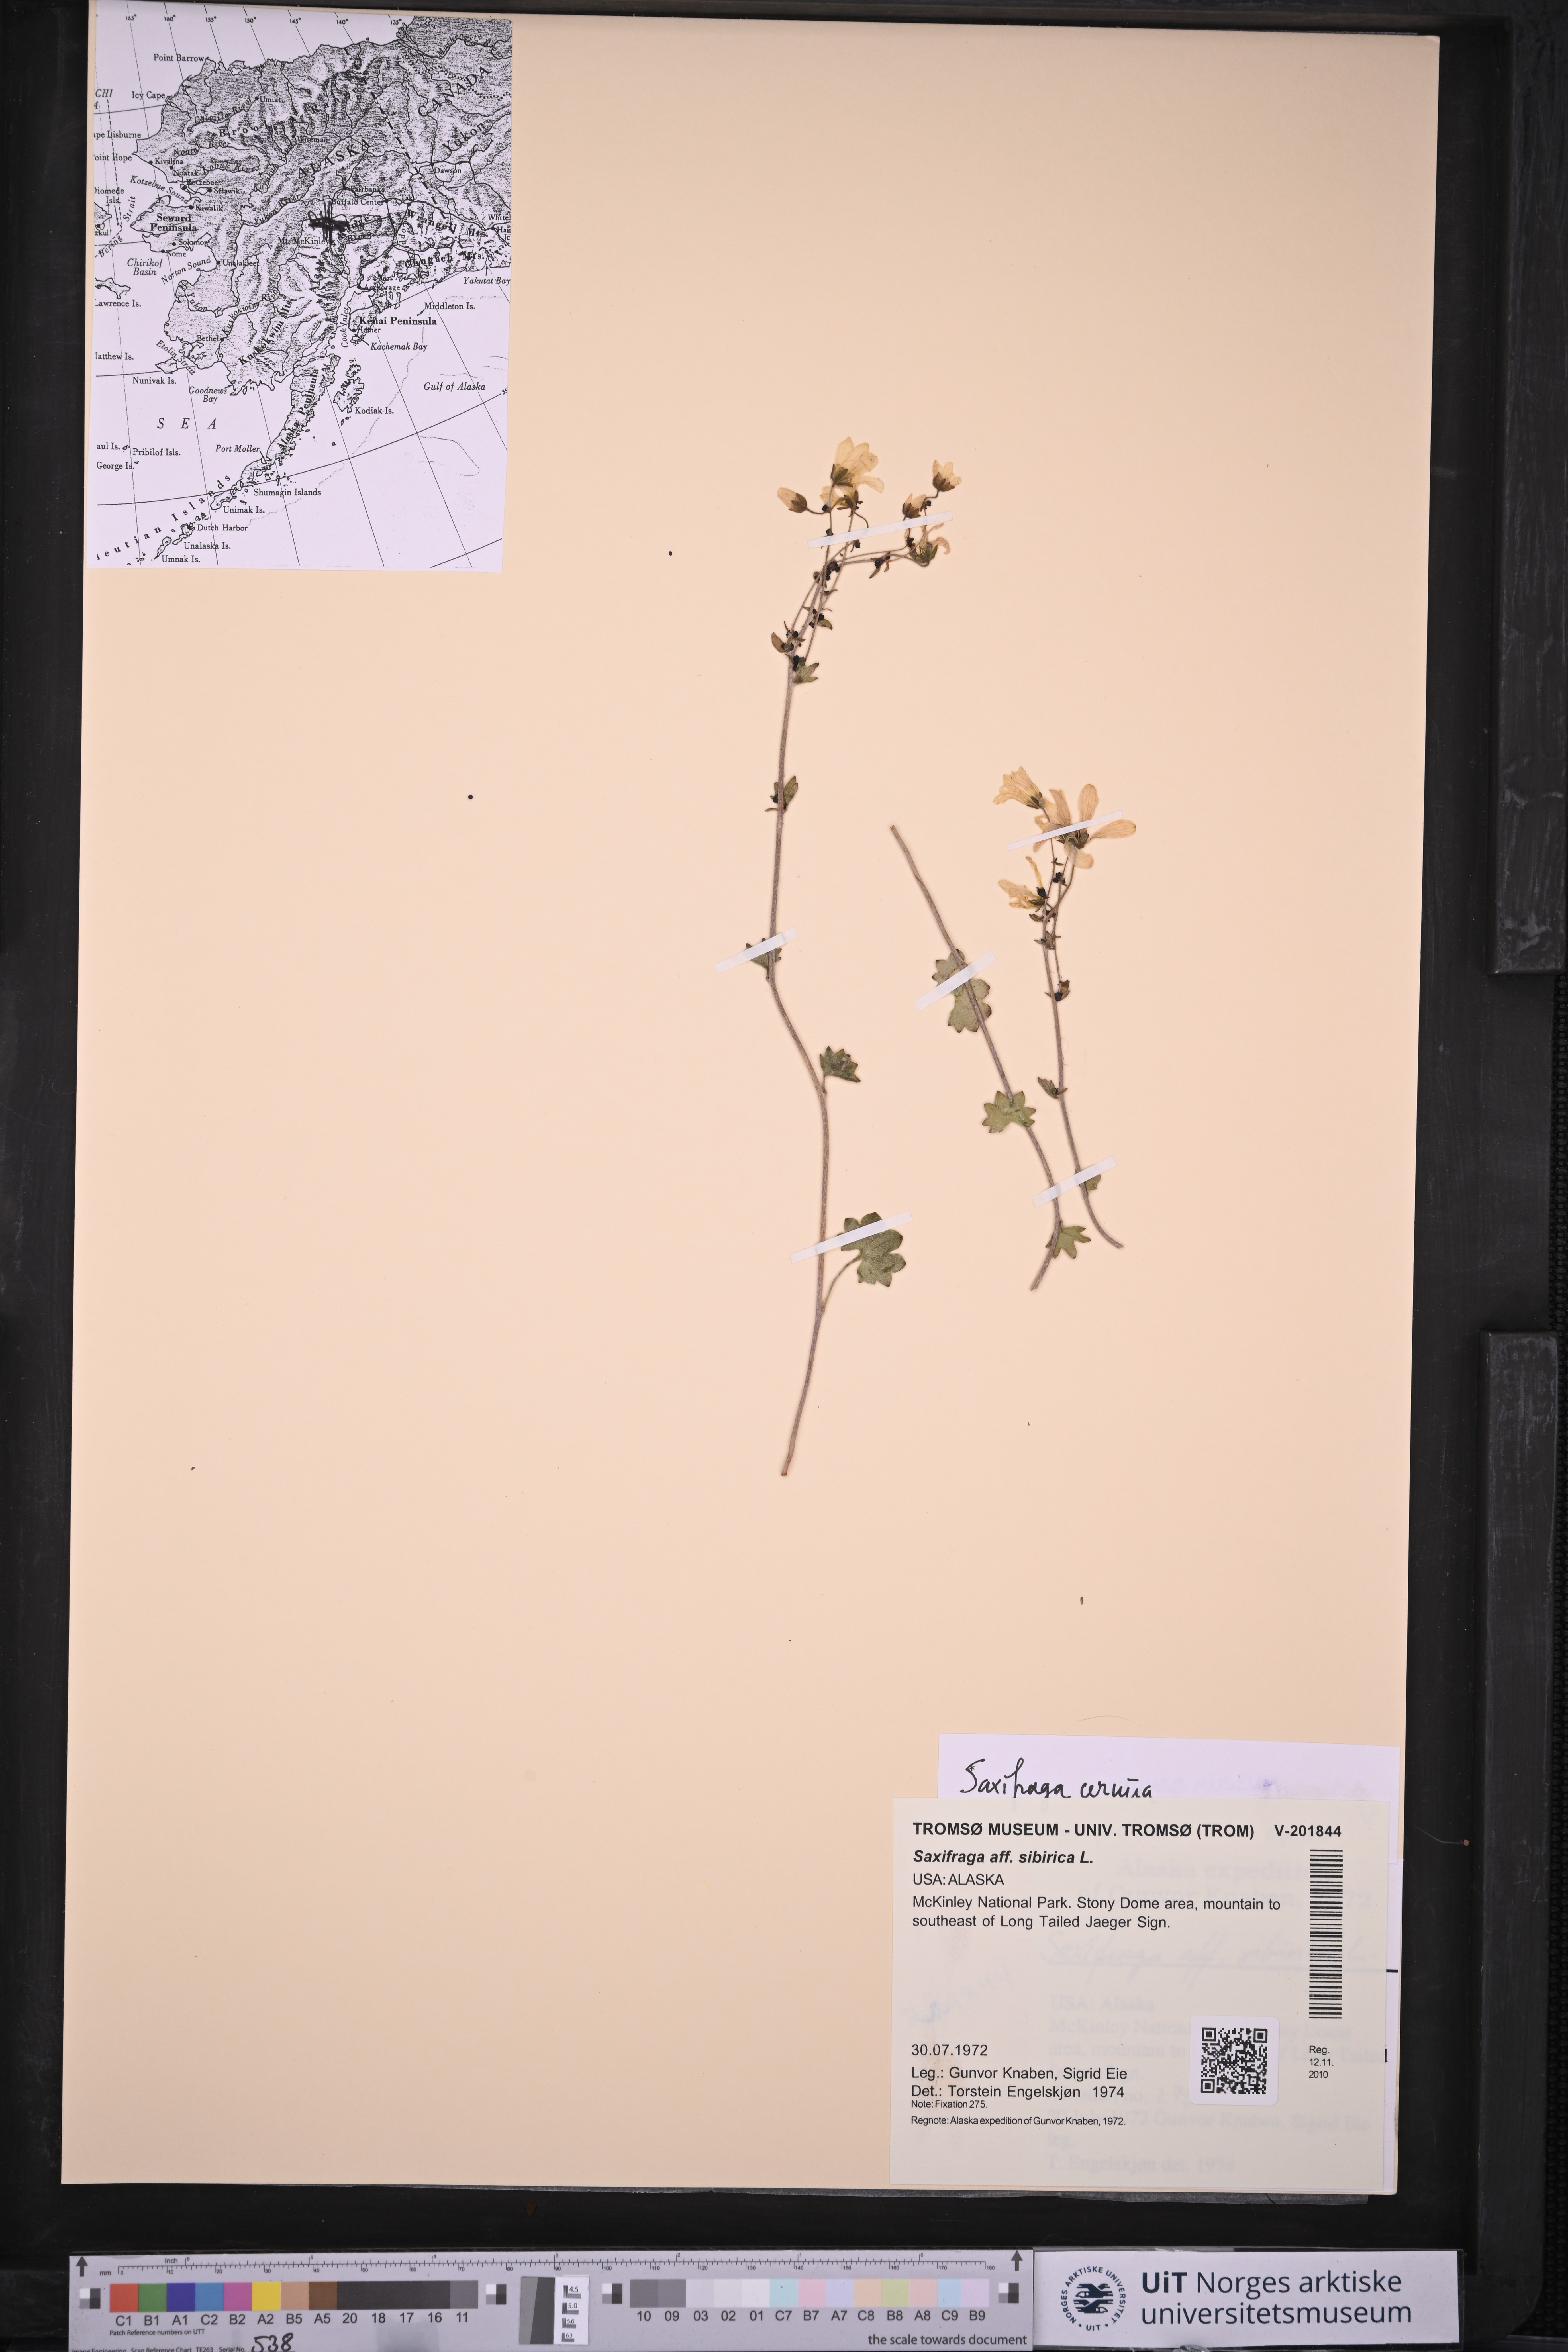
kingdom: Plantae
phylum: Tracheophyta
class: Magnoliopsida
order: Saxifragales
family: Saxifragaceae
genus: Saxifraga
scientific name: Saxifraga cernua
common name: Drooping saxifrage
